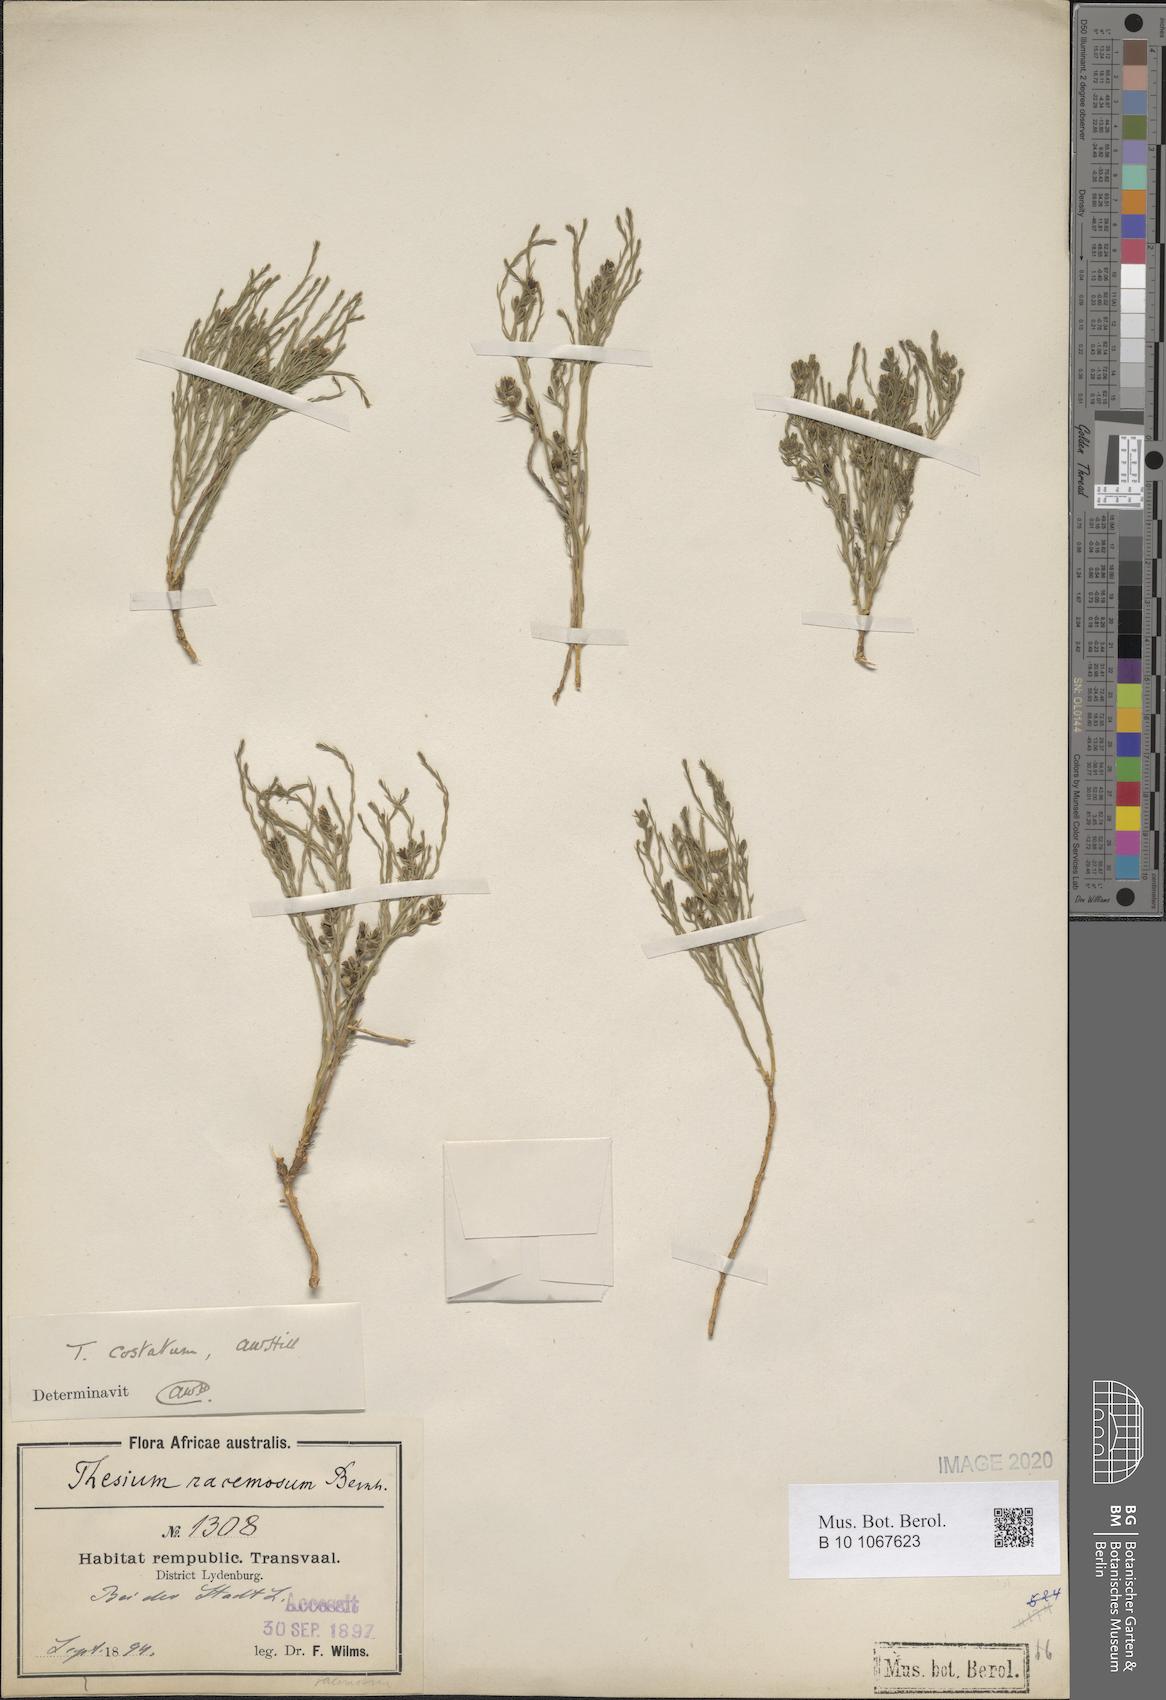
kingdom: Plantae
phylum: Tracheophyta
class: Magnoliopsida
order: Santalales
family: Thesiaceae
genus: Thesium
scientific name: Thesium costatum
